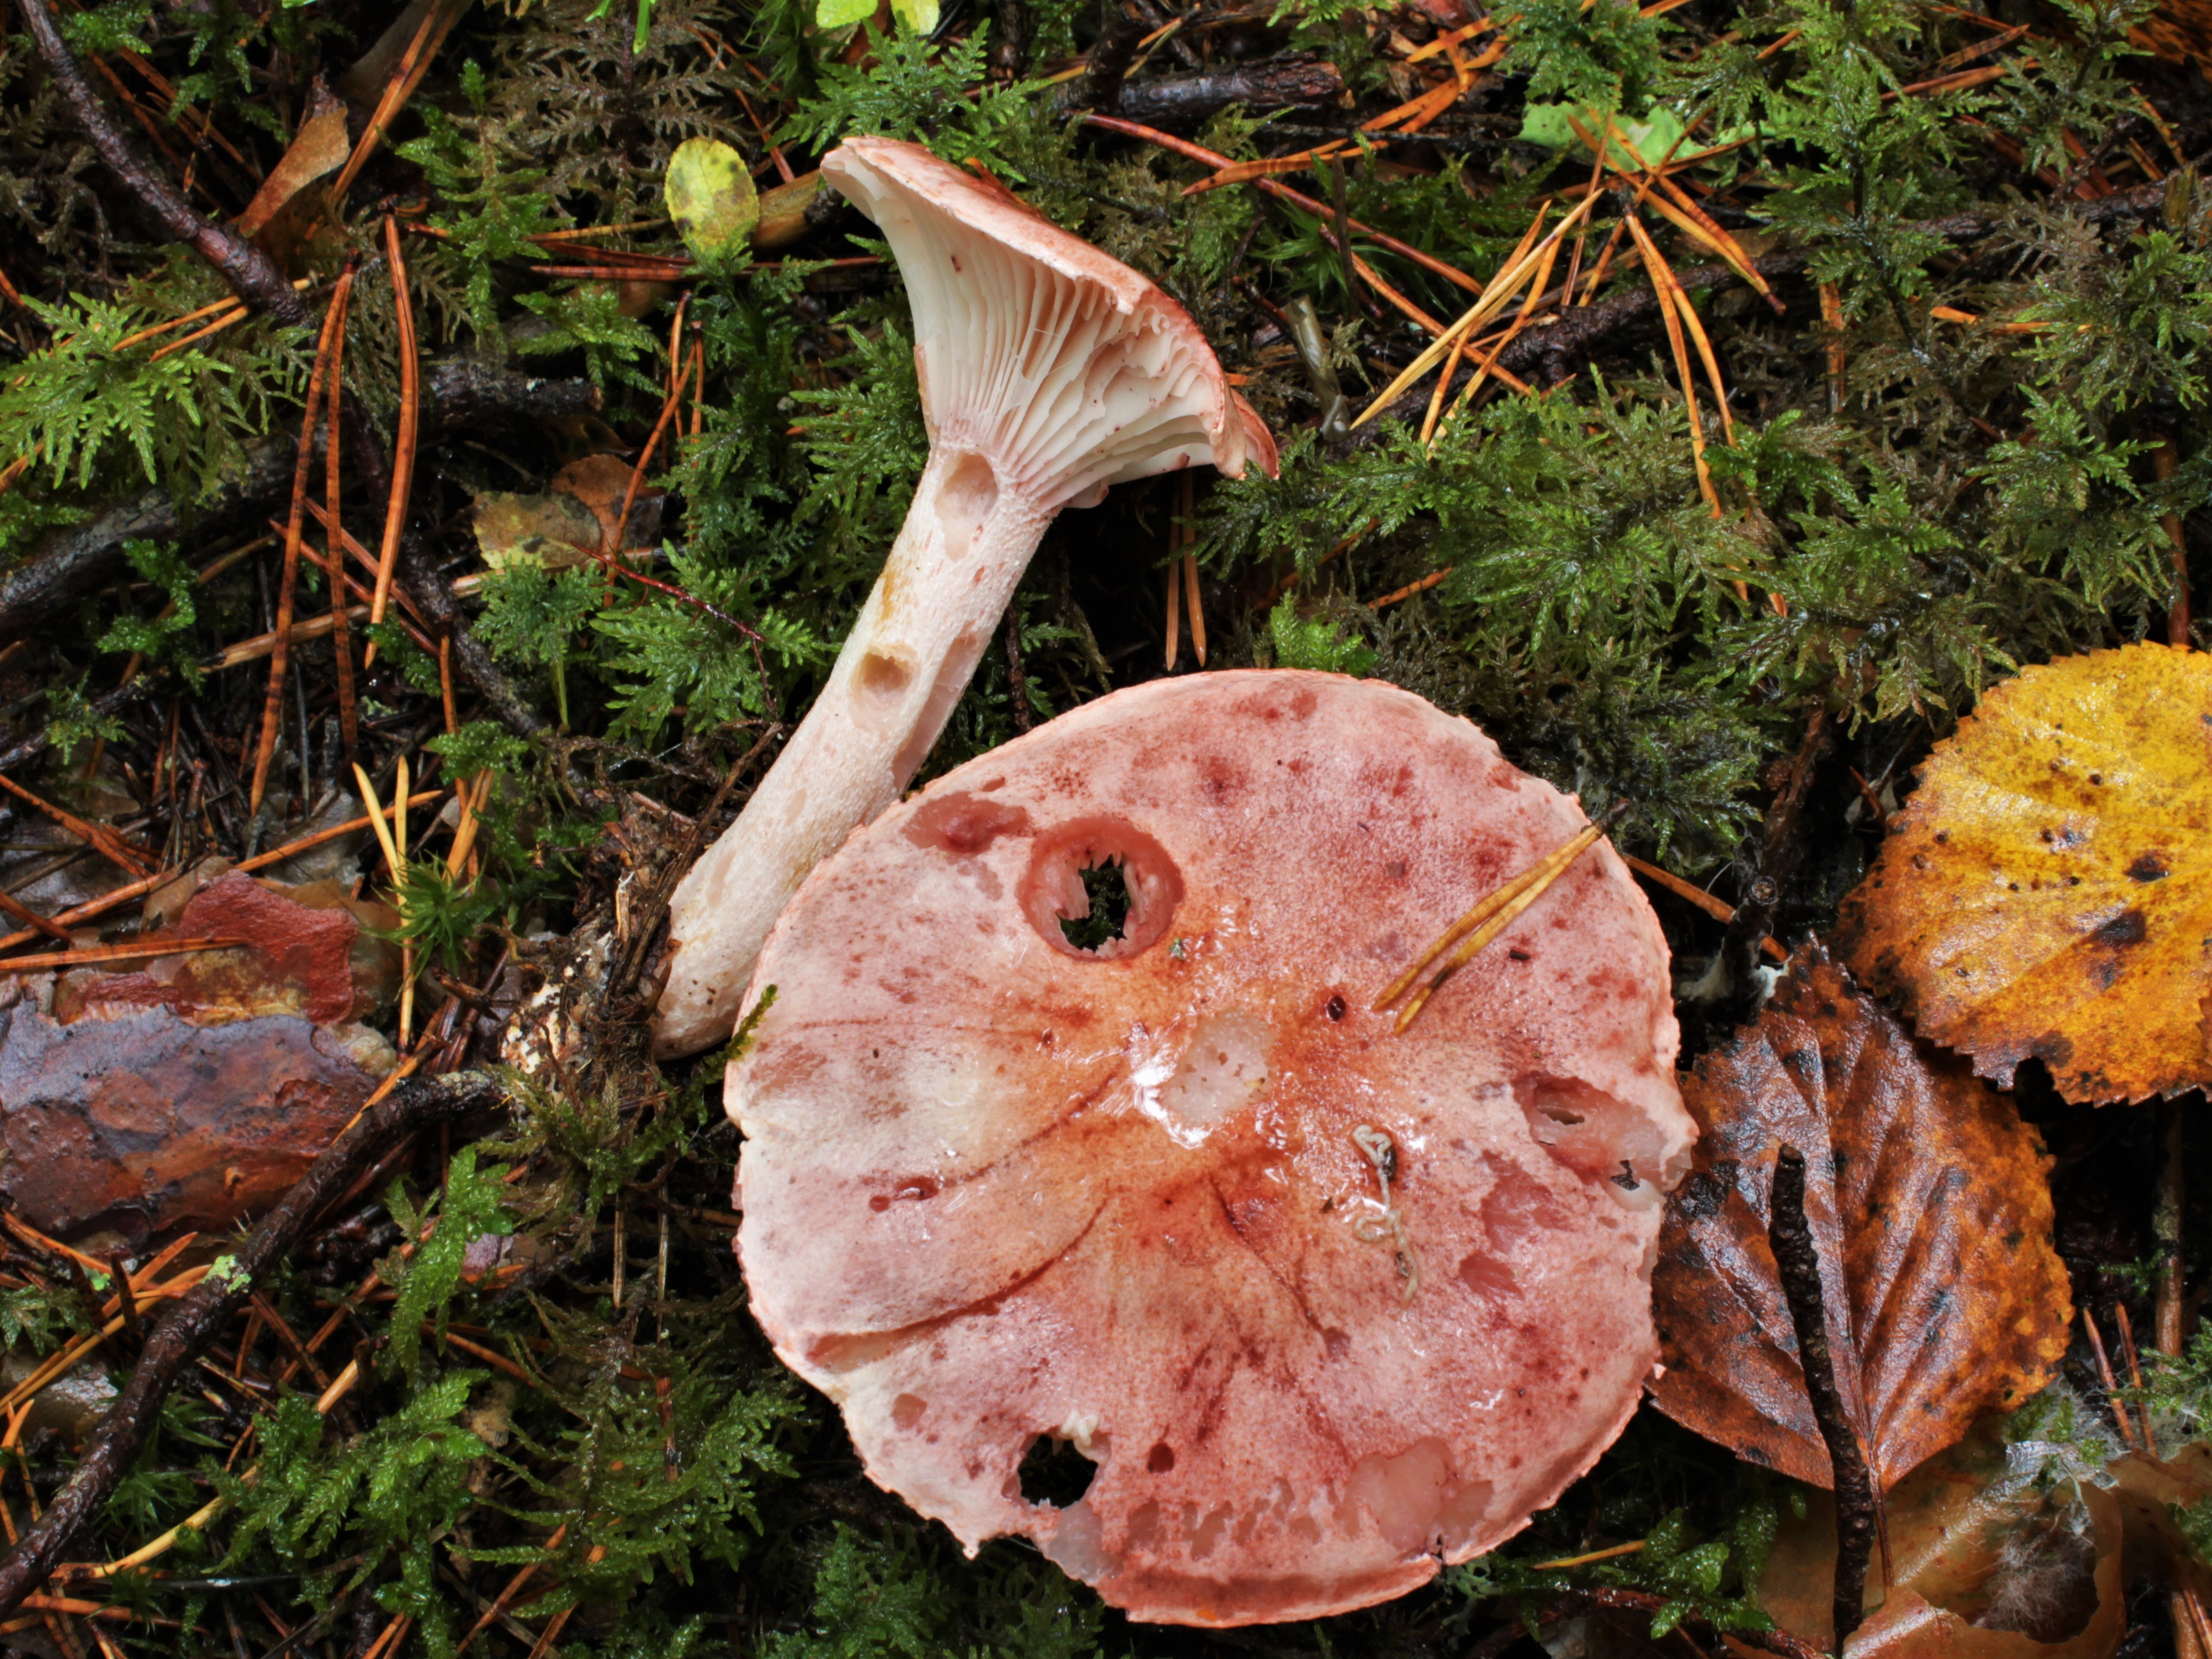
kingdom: Fungi
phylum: Basidiomycota
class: Agaricomycetes
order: Agaricales
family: Hygrophoraceae
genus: Hygrophorus
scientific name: Hygrophorus erubescens
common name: Blotched woodwax
